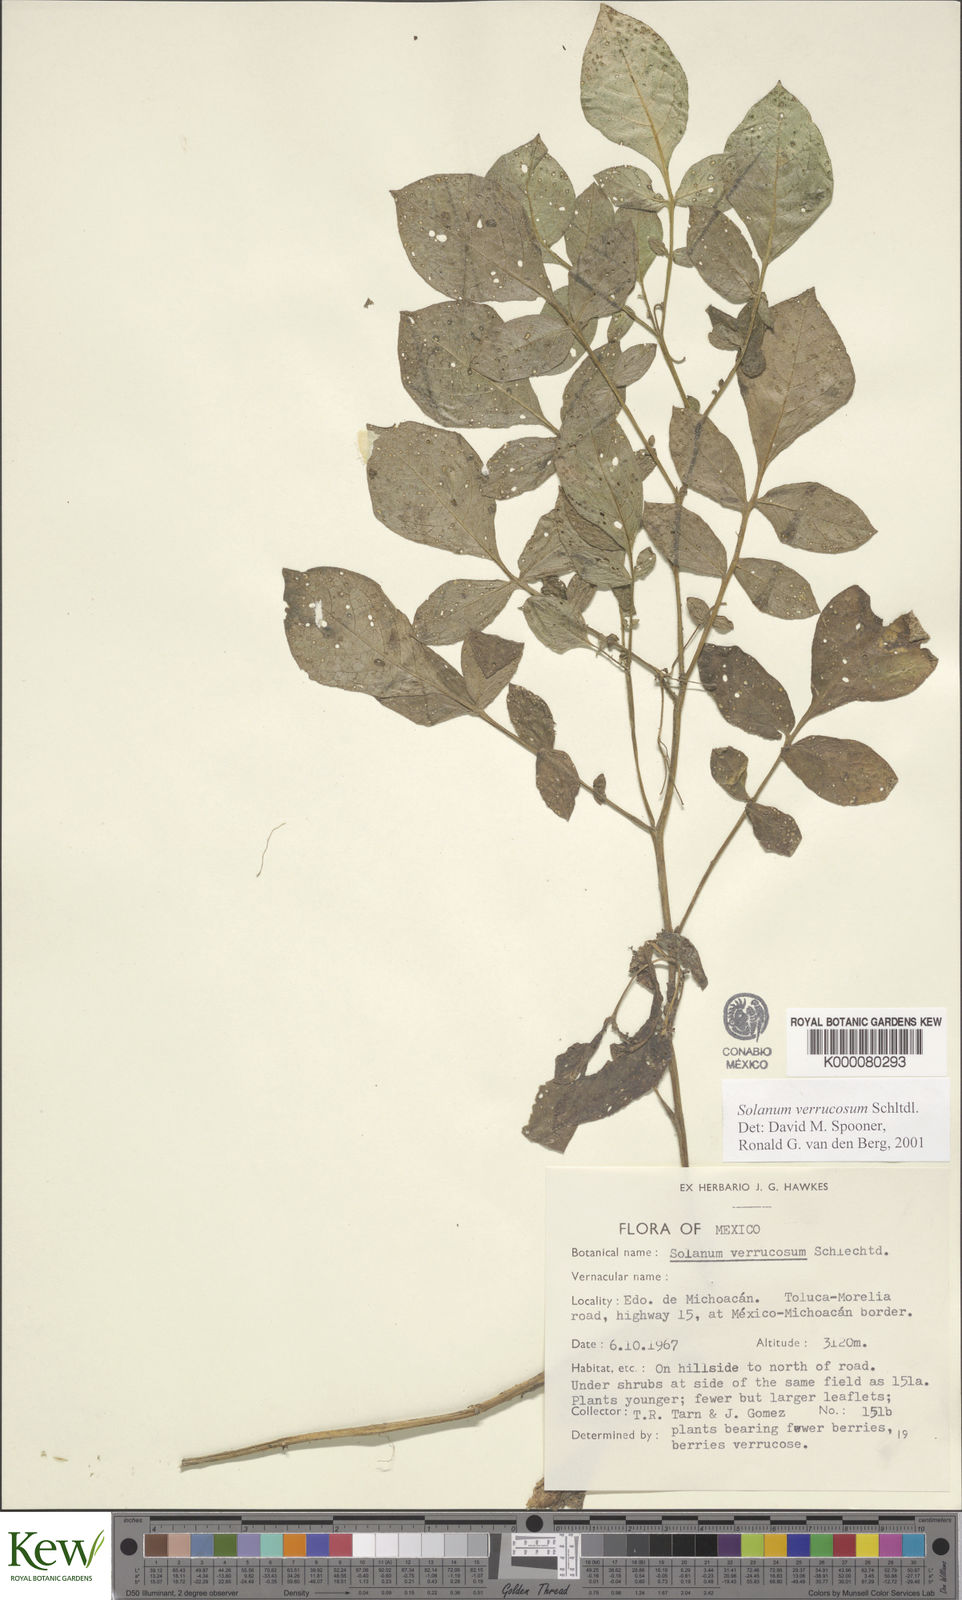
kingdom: Plantae
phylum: Tracheophyta
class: Magnoliopsida
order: Solanales
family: Solanaceae
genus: Solanum
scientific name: Solanum verrucosum
